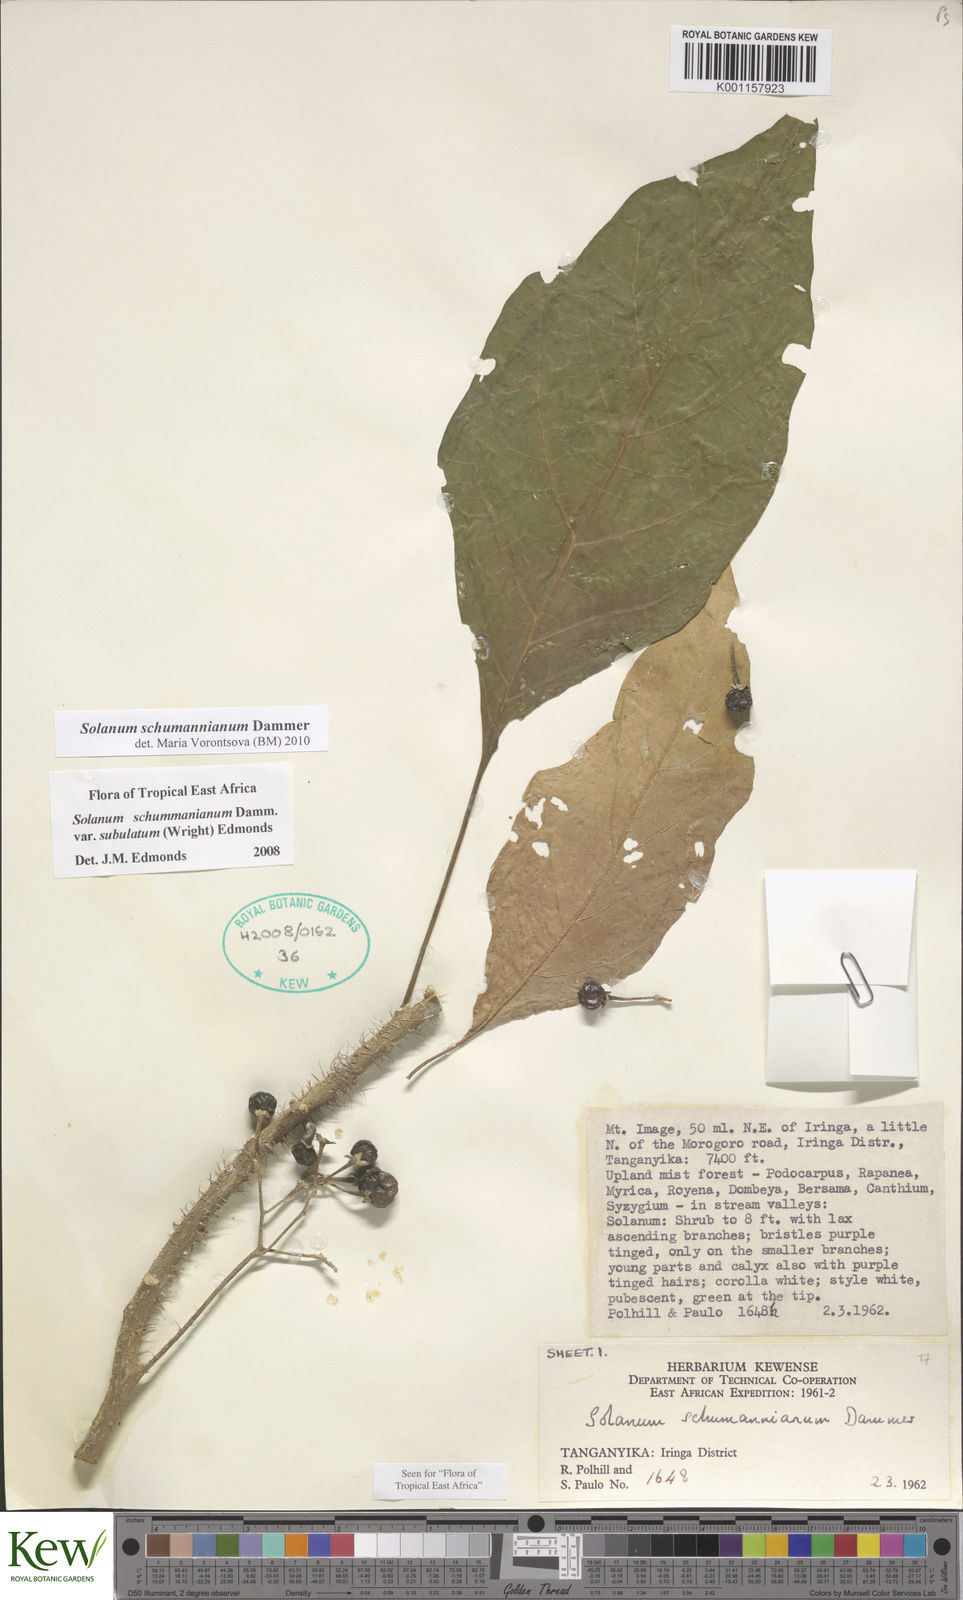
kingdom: Plantae
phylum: Tracheophyta
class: Magnoliopsida
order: Solanales
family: Solanaceae
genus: Solanum
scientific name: Solanum schumannianum
